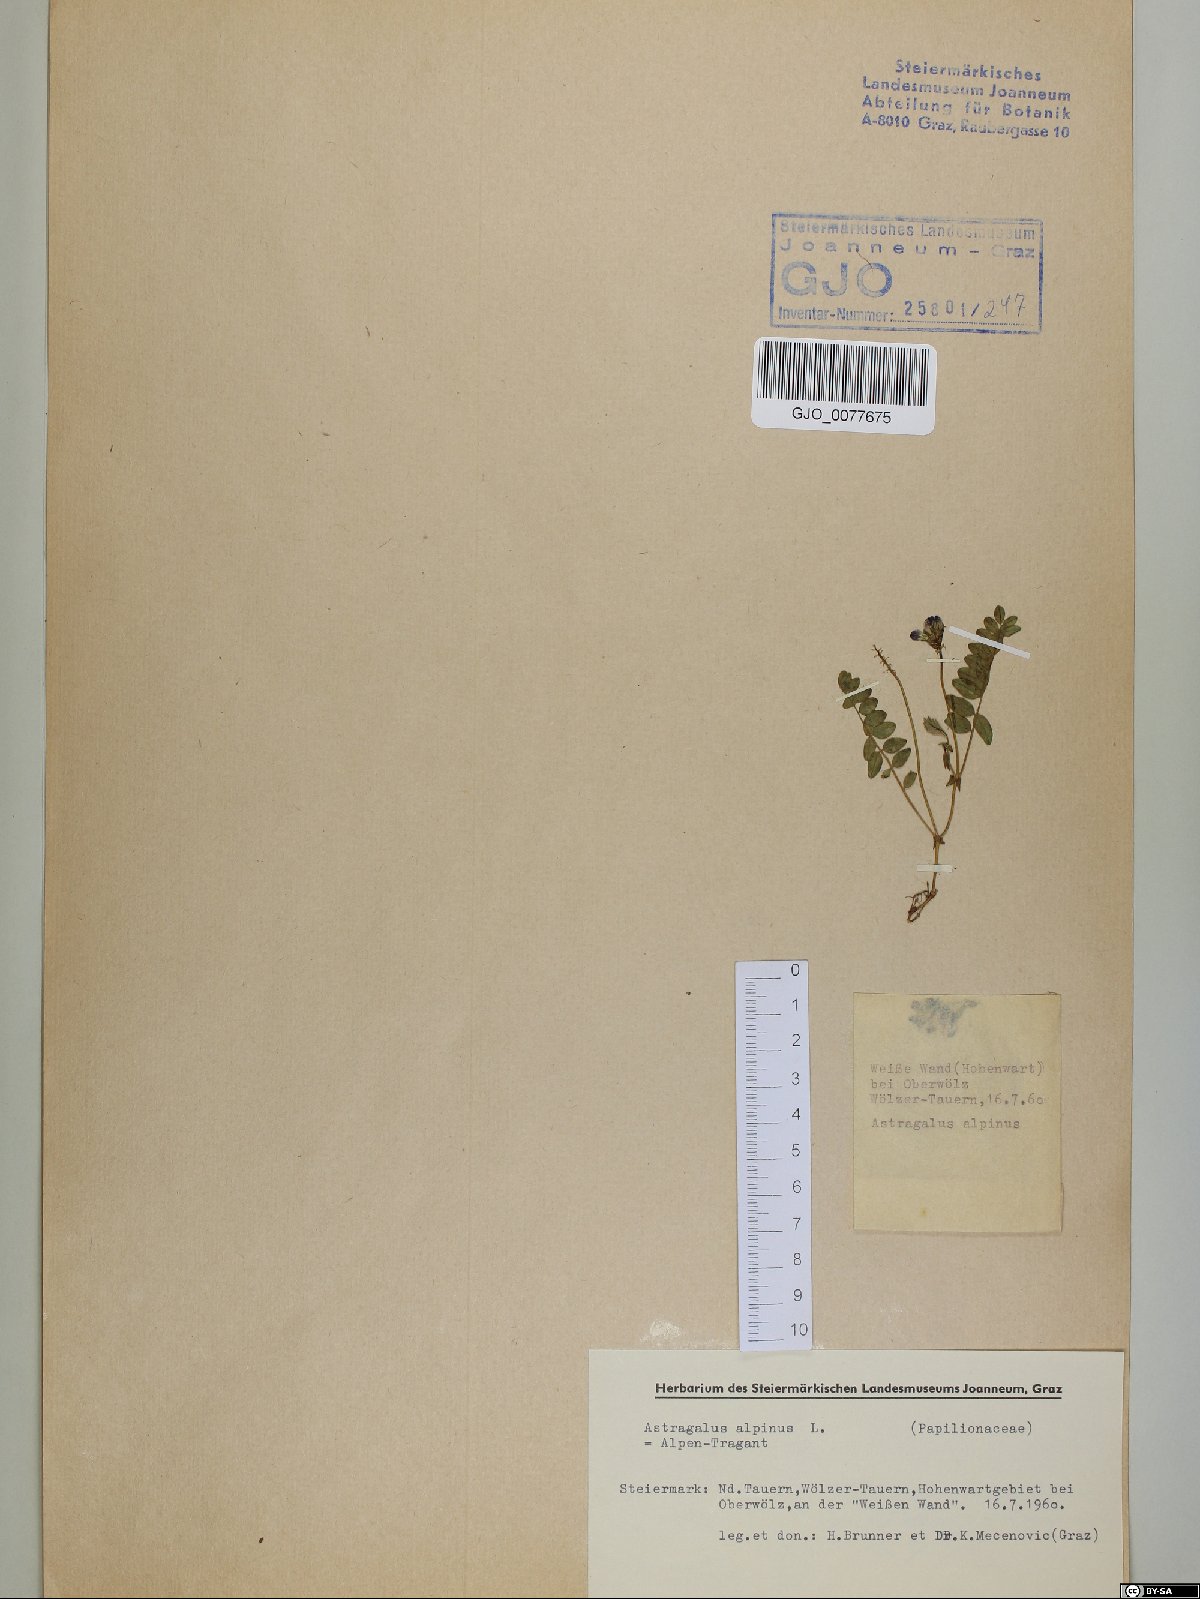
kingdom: Plantae
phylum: Tracheophyta
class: Magnoliopsida
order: Fabales
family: Fabaceae
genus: Astragalus
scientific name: Astragalus alpinus
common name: Alpine milk-vetch
